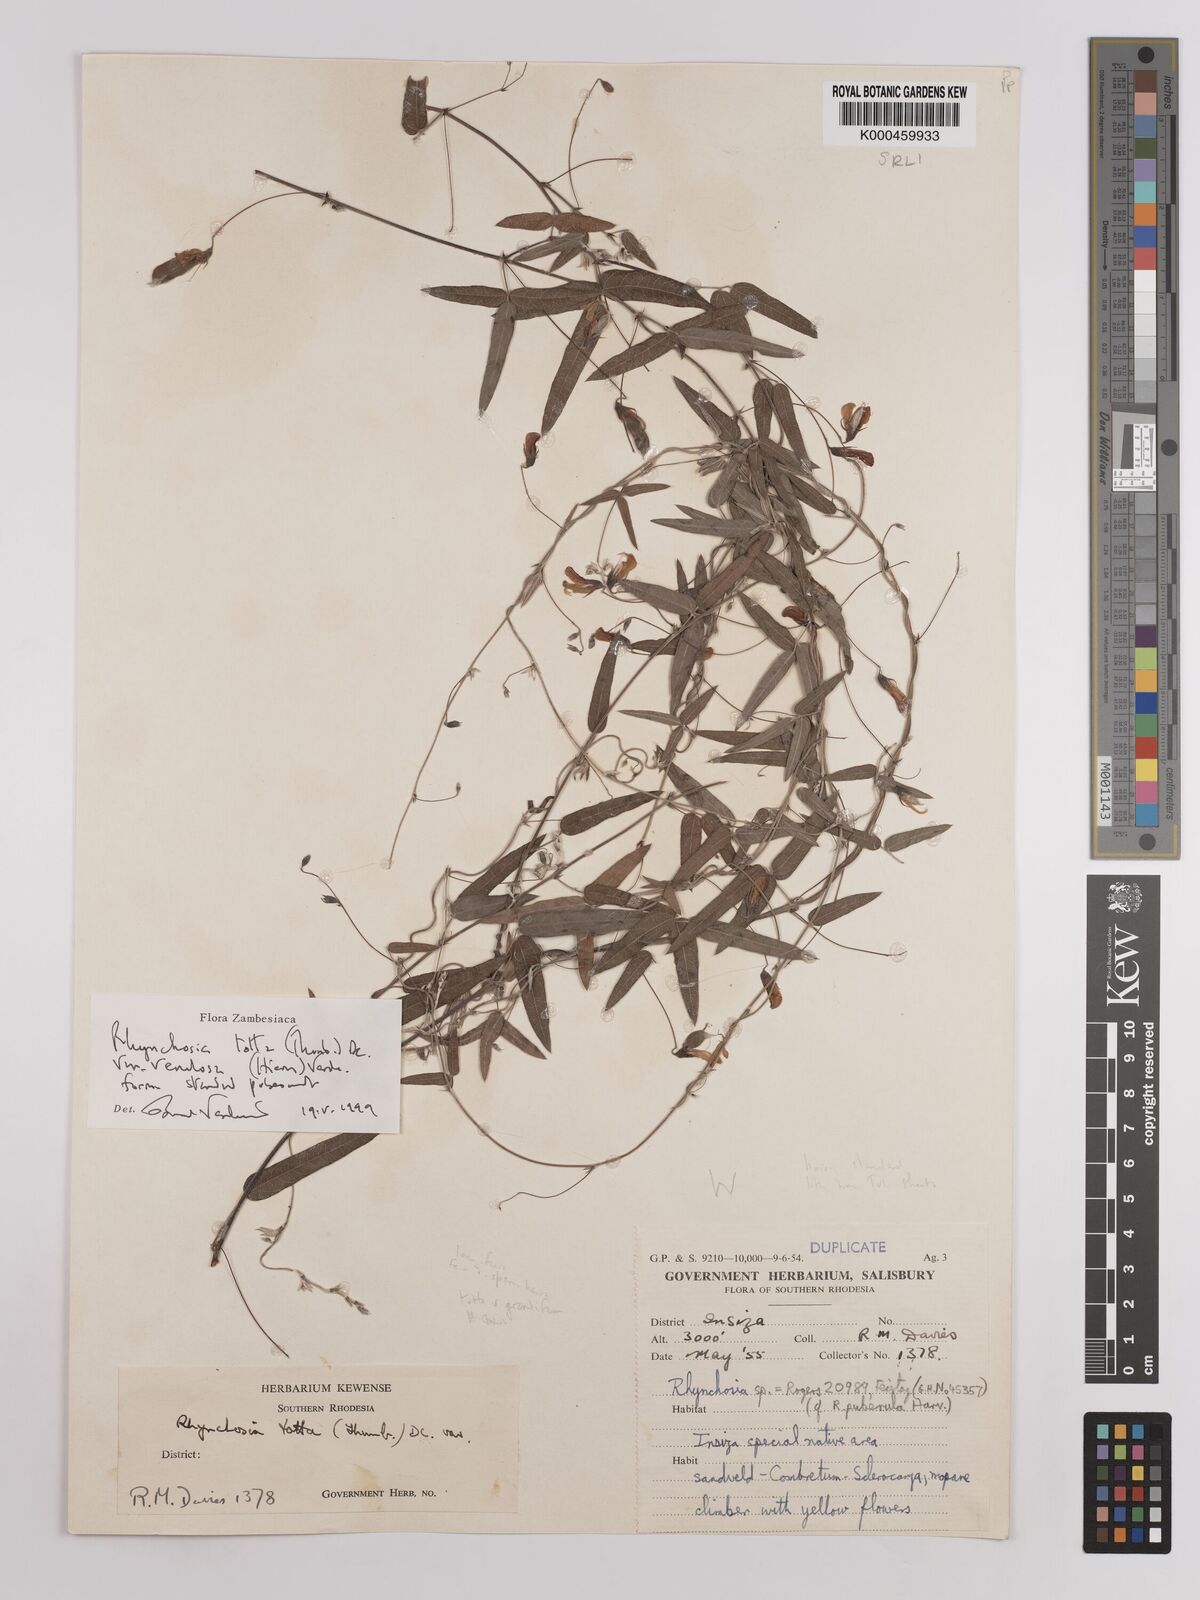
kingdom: Plantae
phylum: Tracheophyta
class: Magnoliopsida
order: Fabales
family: Fabaceae
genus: Rhynchosia
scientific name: Rhynchosia totta
